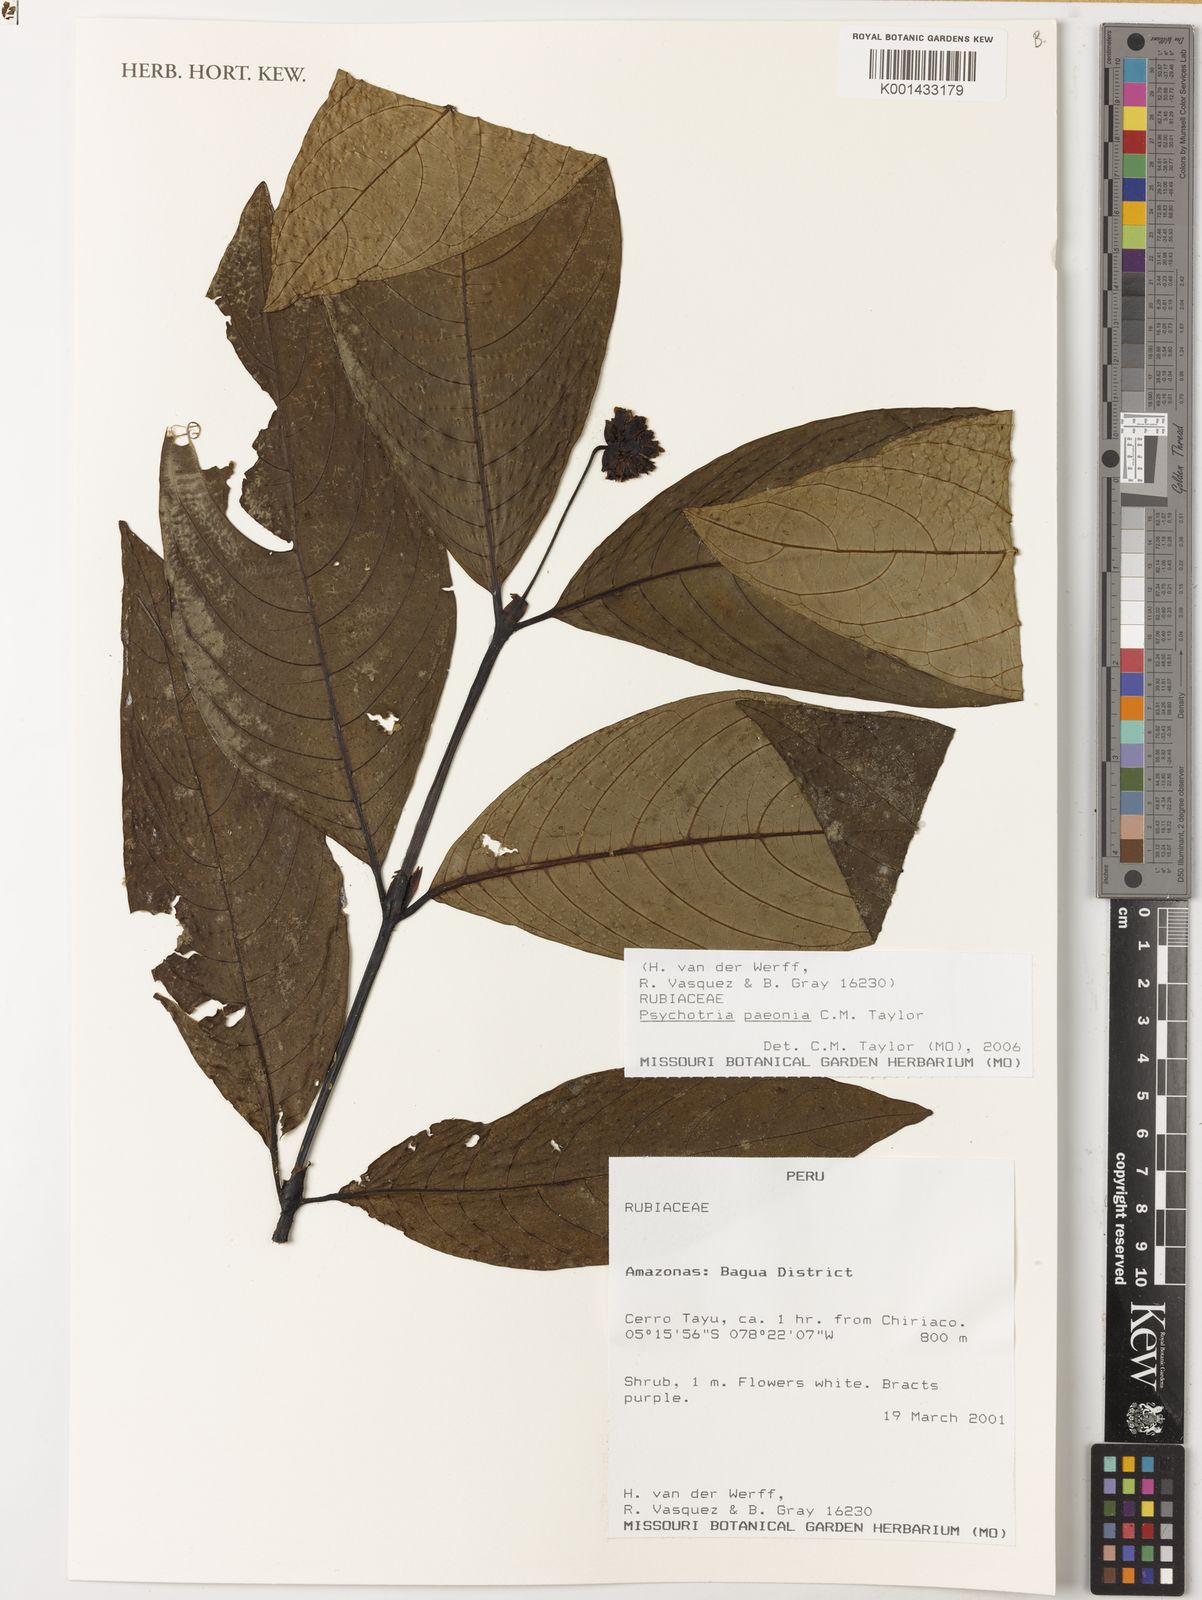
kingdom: Plantae
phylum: Tracheophyta
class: Magnoliopsida
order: Gentianales
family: Rubiaceae
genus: Psychotria
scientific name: Psychotria paeonia
